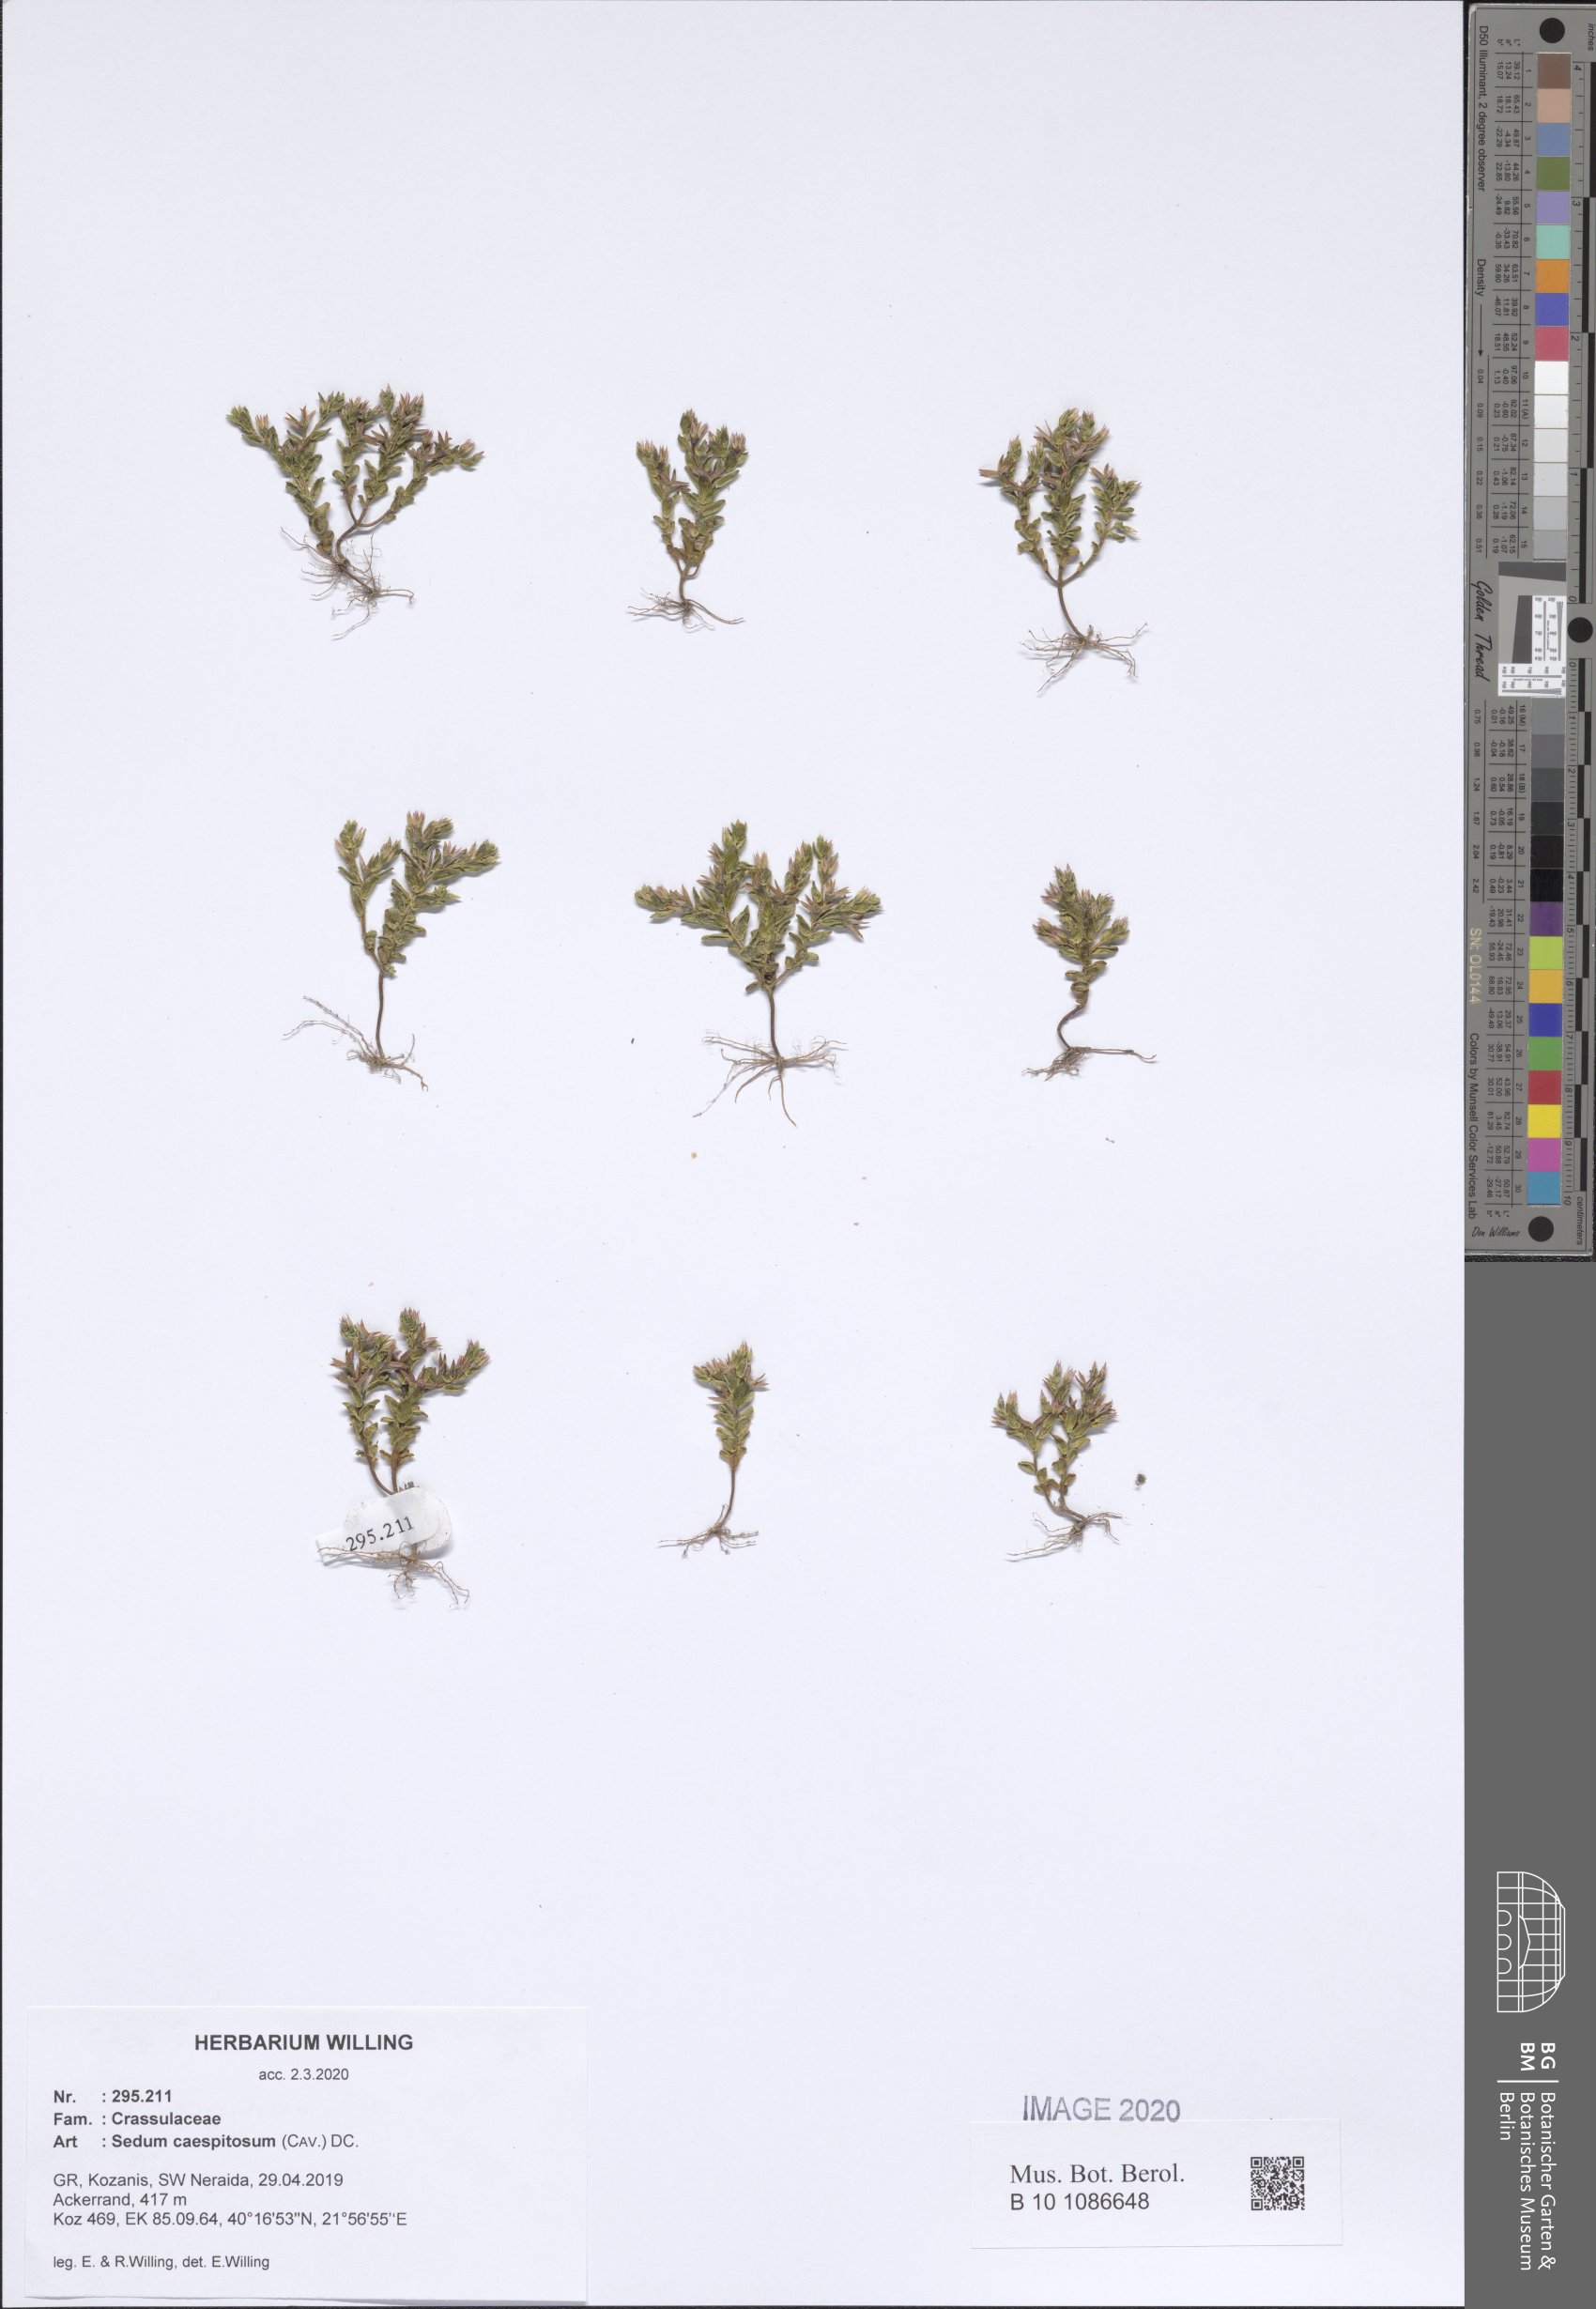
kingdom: Plantae
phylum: Tracheophyta
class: Magnoliopsida
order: Saxifragales
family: Crassulaceae
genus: Sedum
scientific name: Sedum cespitosum
